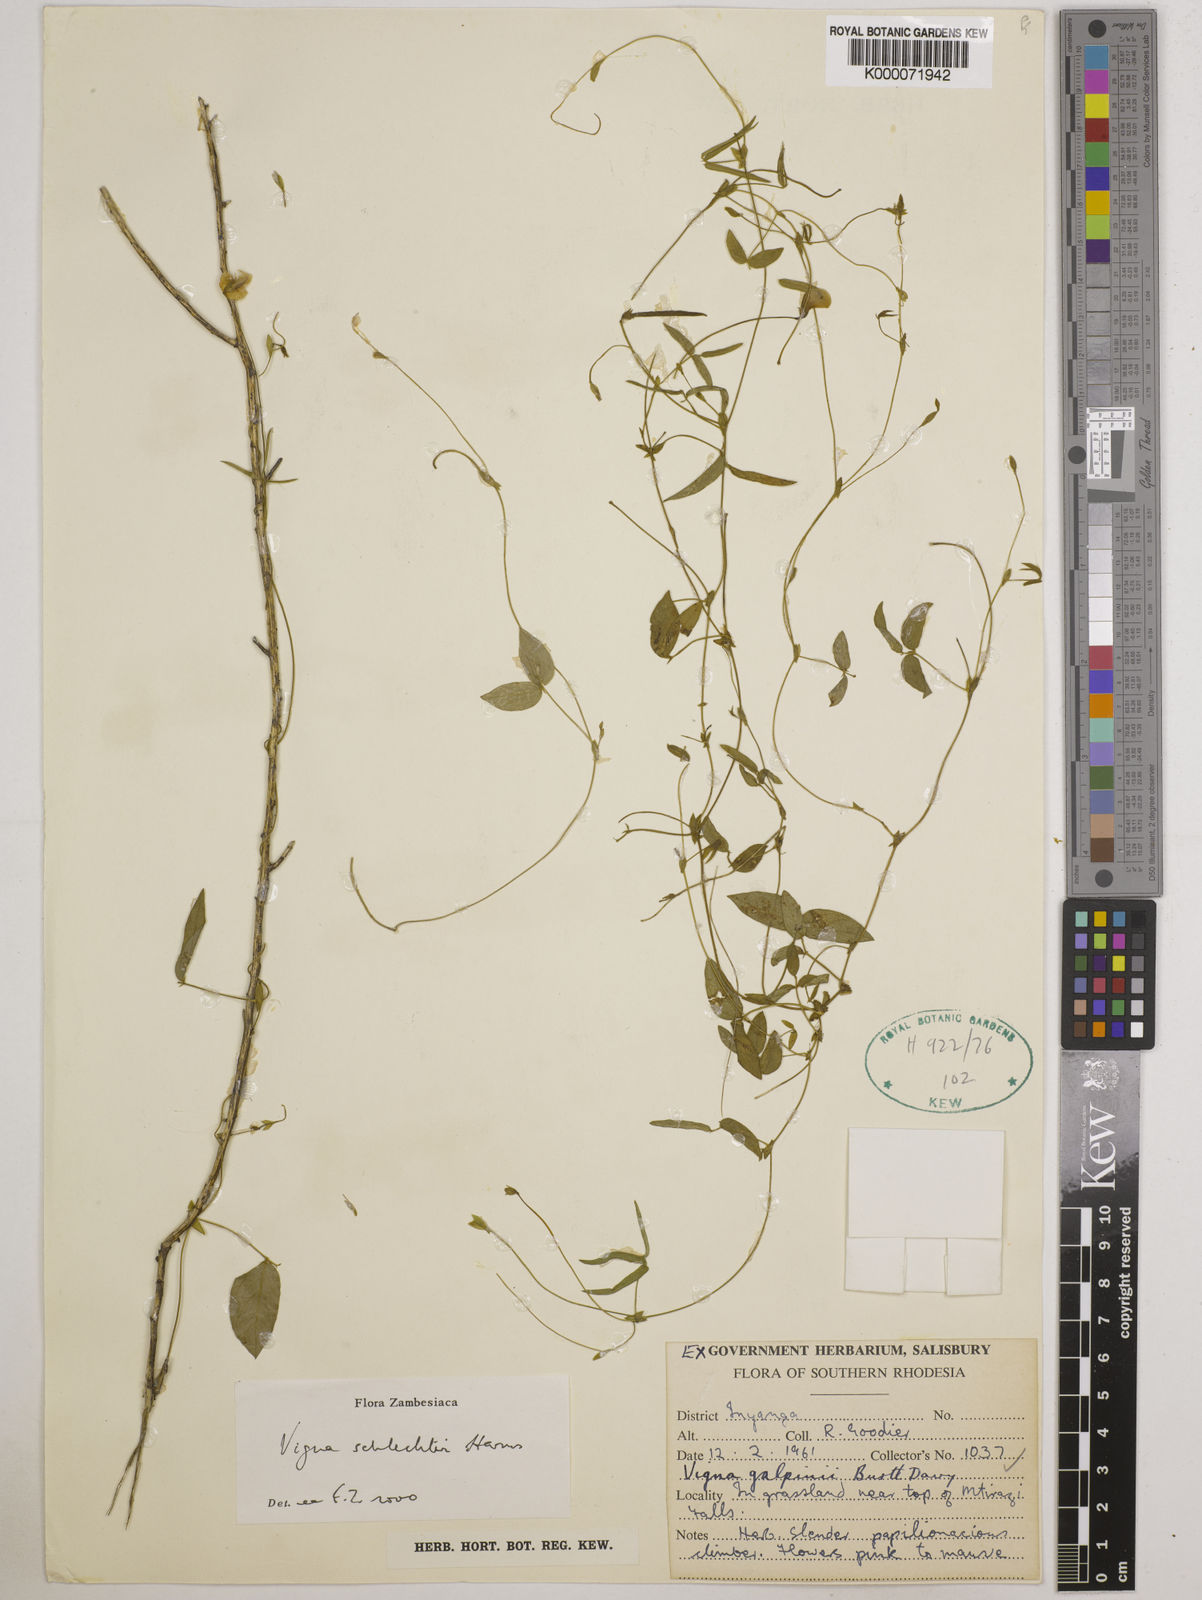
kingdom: Plantae
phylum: Tracheophyta
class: Magnoliopsida
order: Fabales
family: Fabaceae
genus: Vigna
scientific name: Vigna schlechteri
